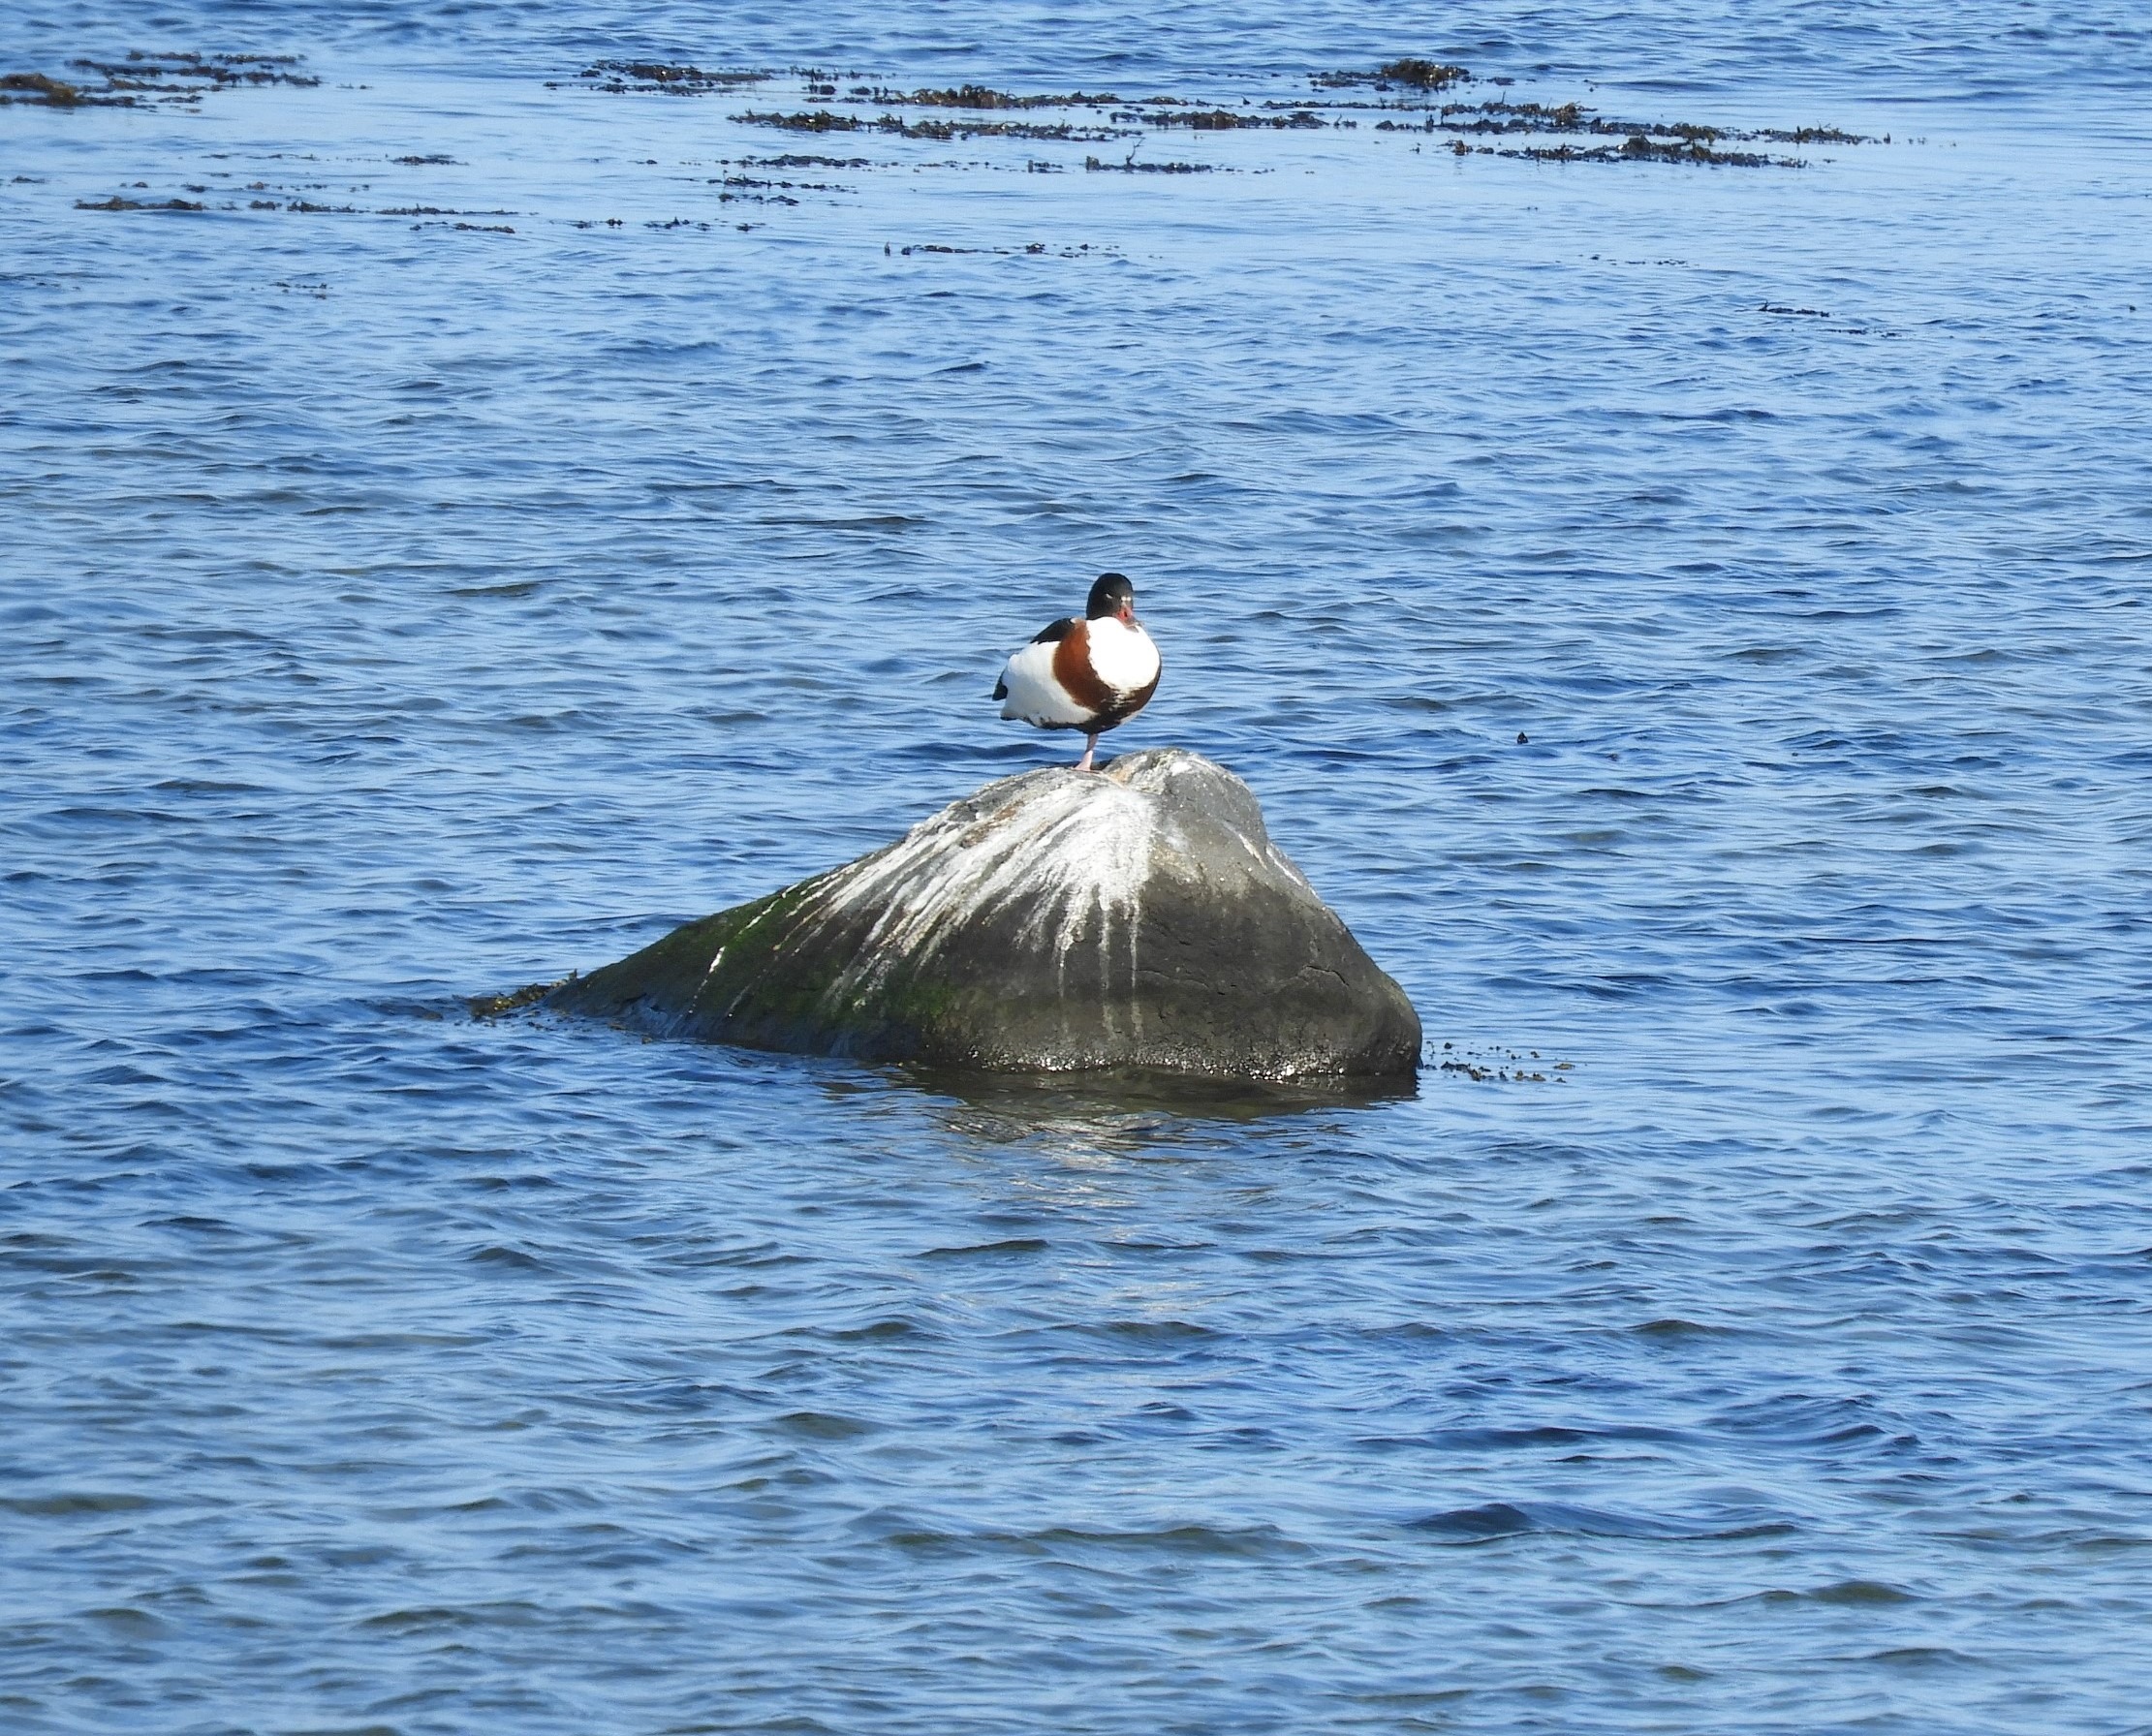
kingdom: Animalia
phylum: Chordata
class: Aves
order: Anseriformes
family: Anatidae
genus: Tadorna
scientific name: Tadorna tadorna
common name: Gravand
